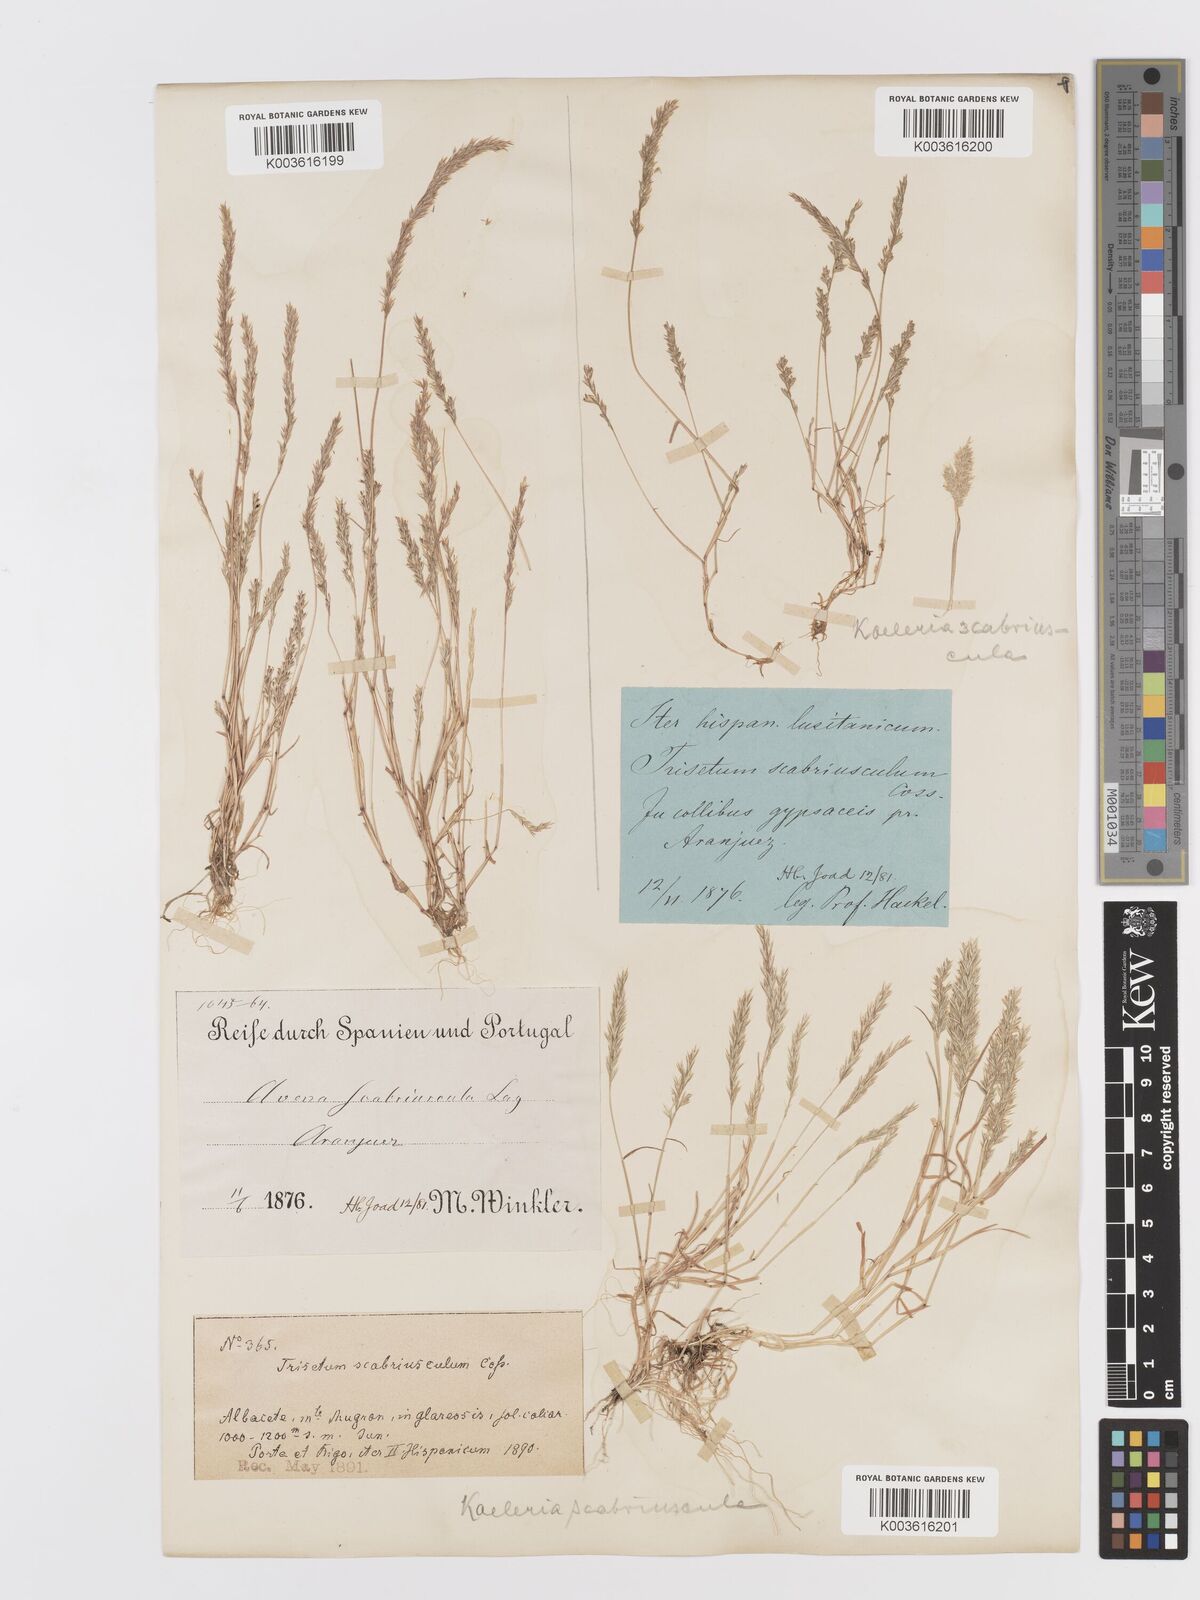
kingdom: Plantae
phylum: Tracheophyta
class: Liliopsida
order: Poales
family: Poaceae
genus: Trisetaria
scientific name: Trisetaria scabriuscula
